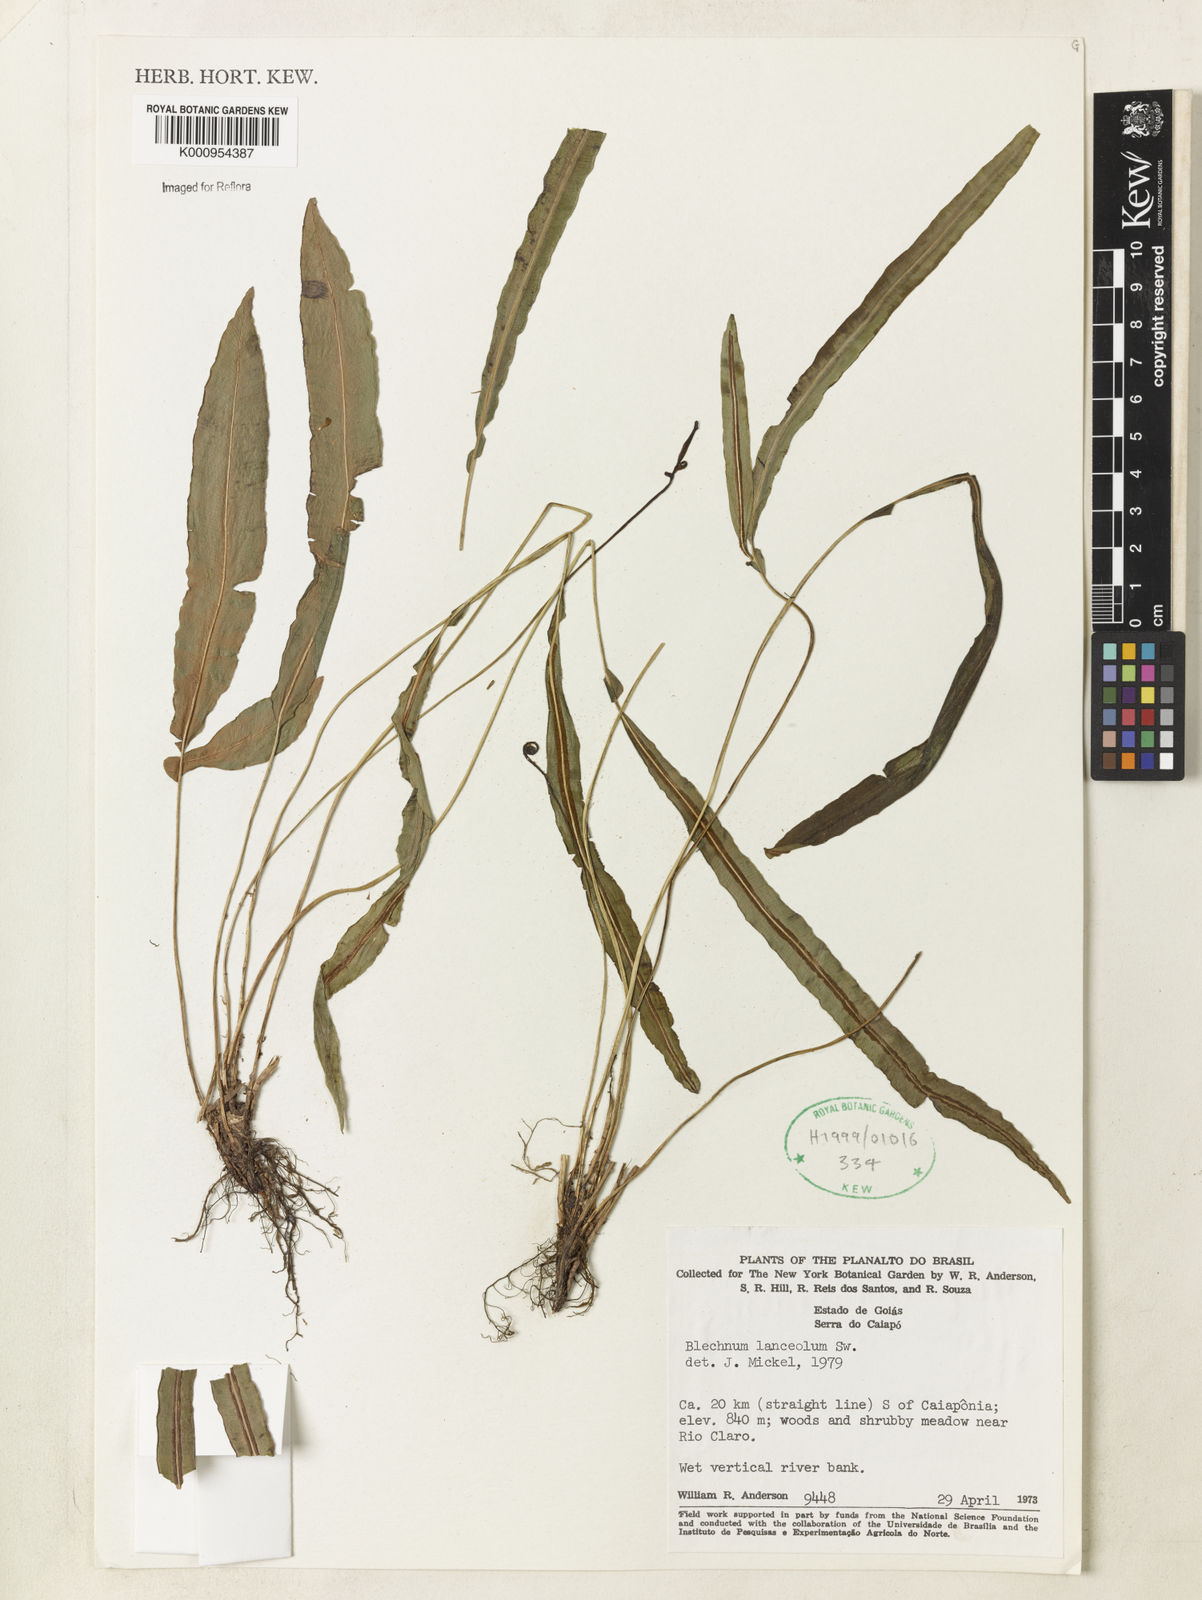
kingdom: Plantae
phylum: Tracheophyta
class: Polypodiopsida
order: Polypodiales
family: Blechnaceae
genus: Blechnum
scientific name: Blechnum lanceola
